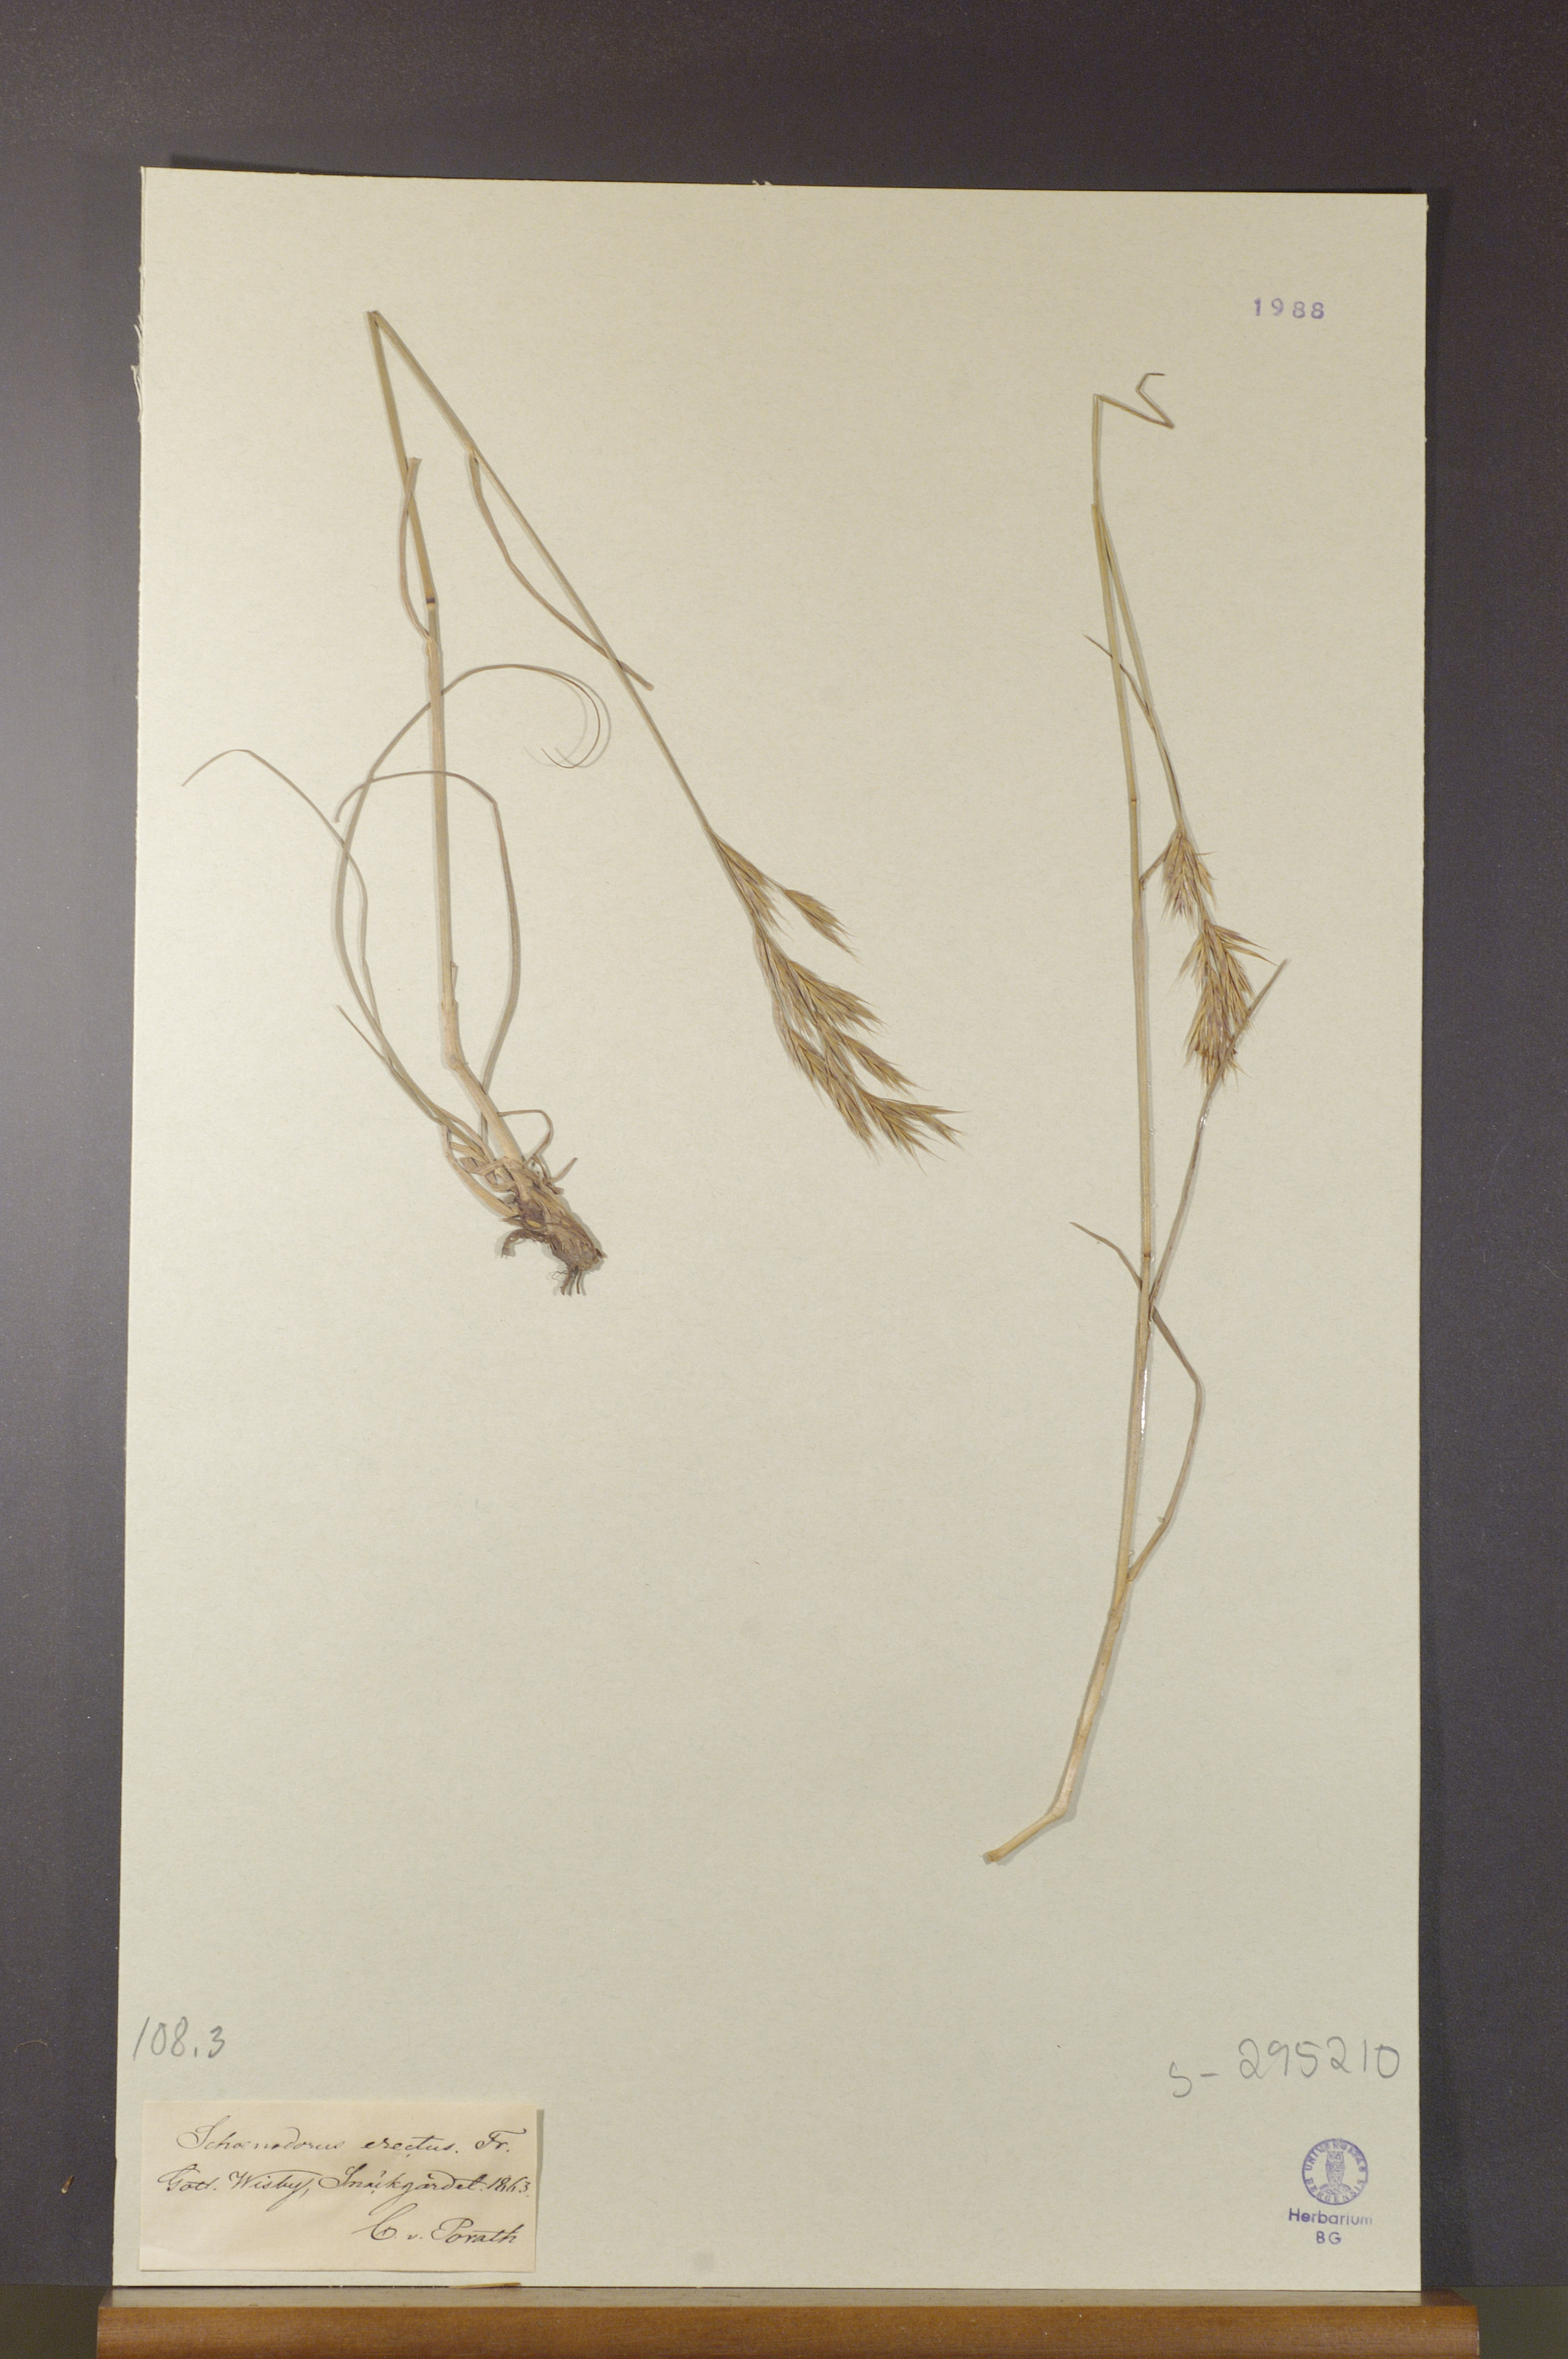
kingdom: Plantae
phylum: Tracheophyta
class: Liliopsida
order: Poales
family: Poaceae
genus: Bromus
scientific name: Bromus erectus
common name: Erect brome
